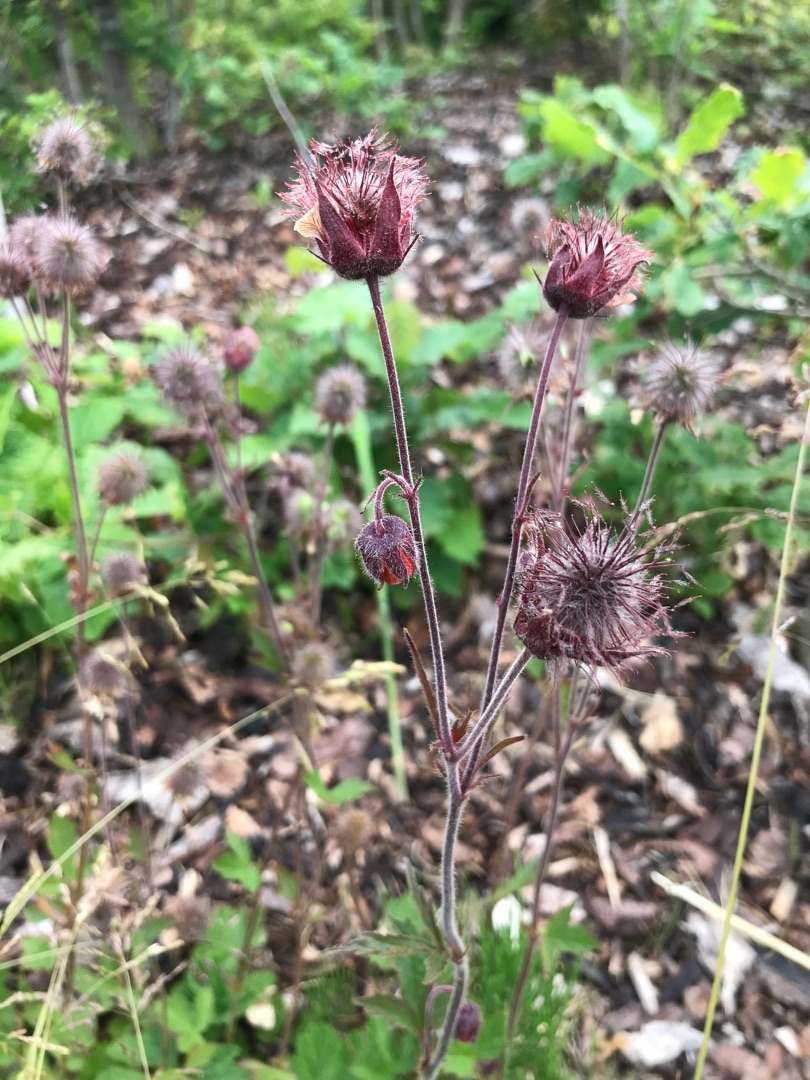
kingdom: Plantae
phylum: Tracheophyta
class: Magnoliopsida
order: Rosales
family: Rosaceae
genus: Geum
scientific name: Geum rivale
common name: Eng-nellikerod
